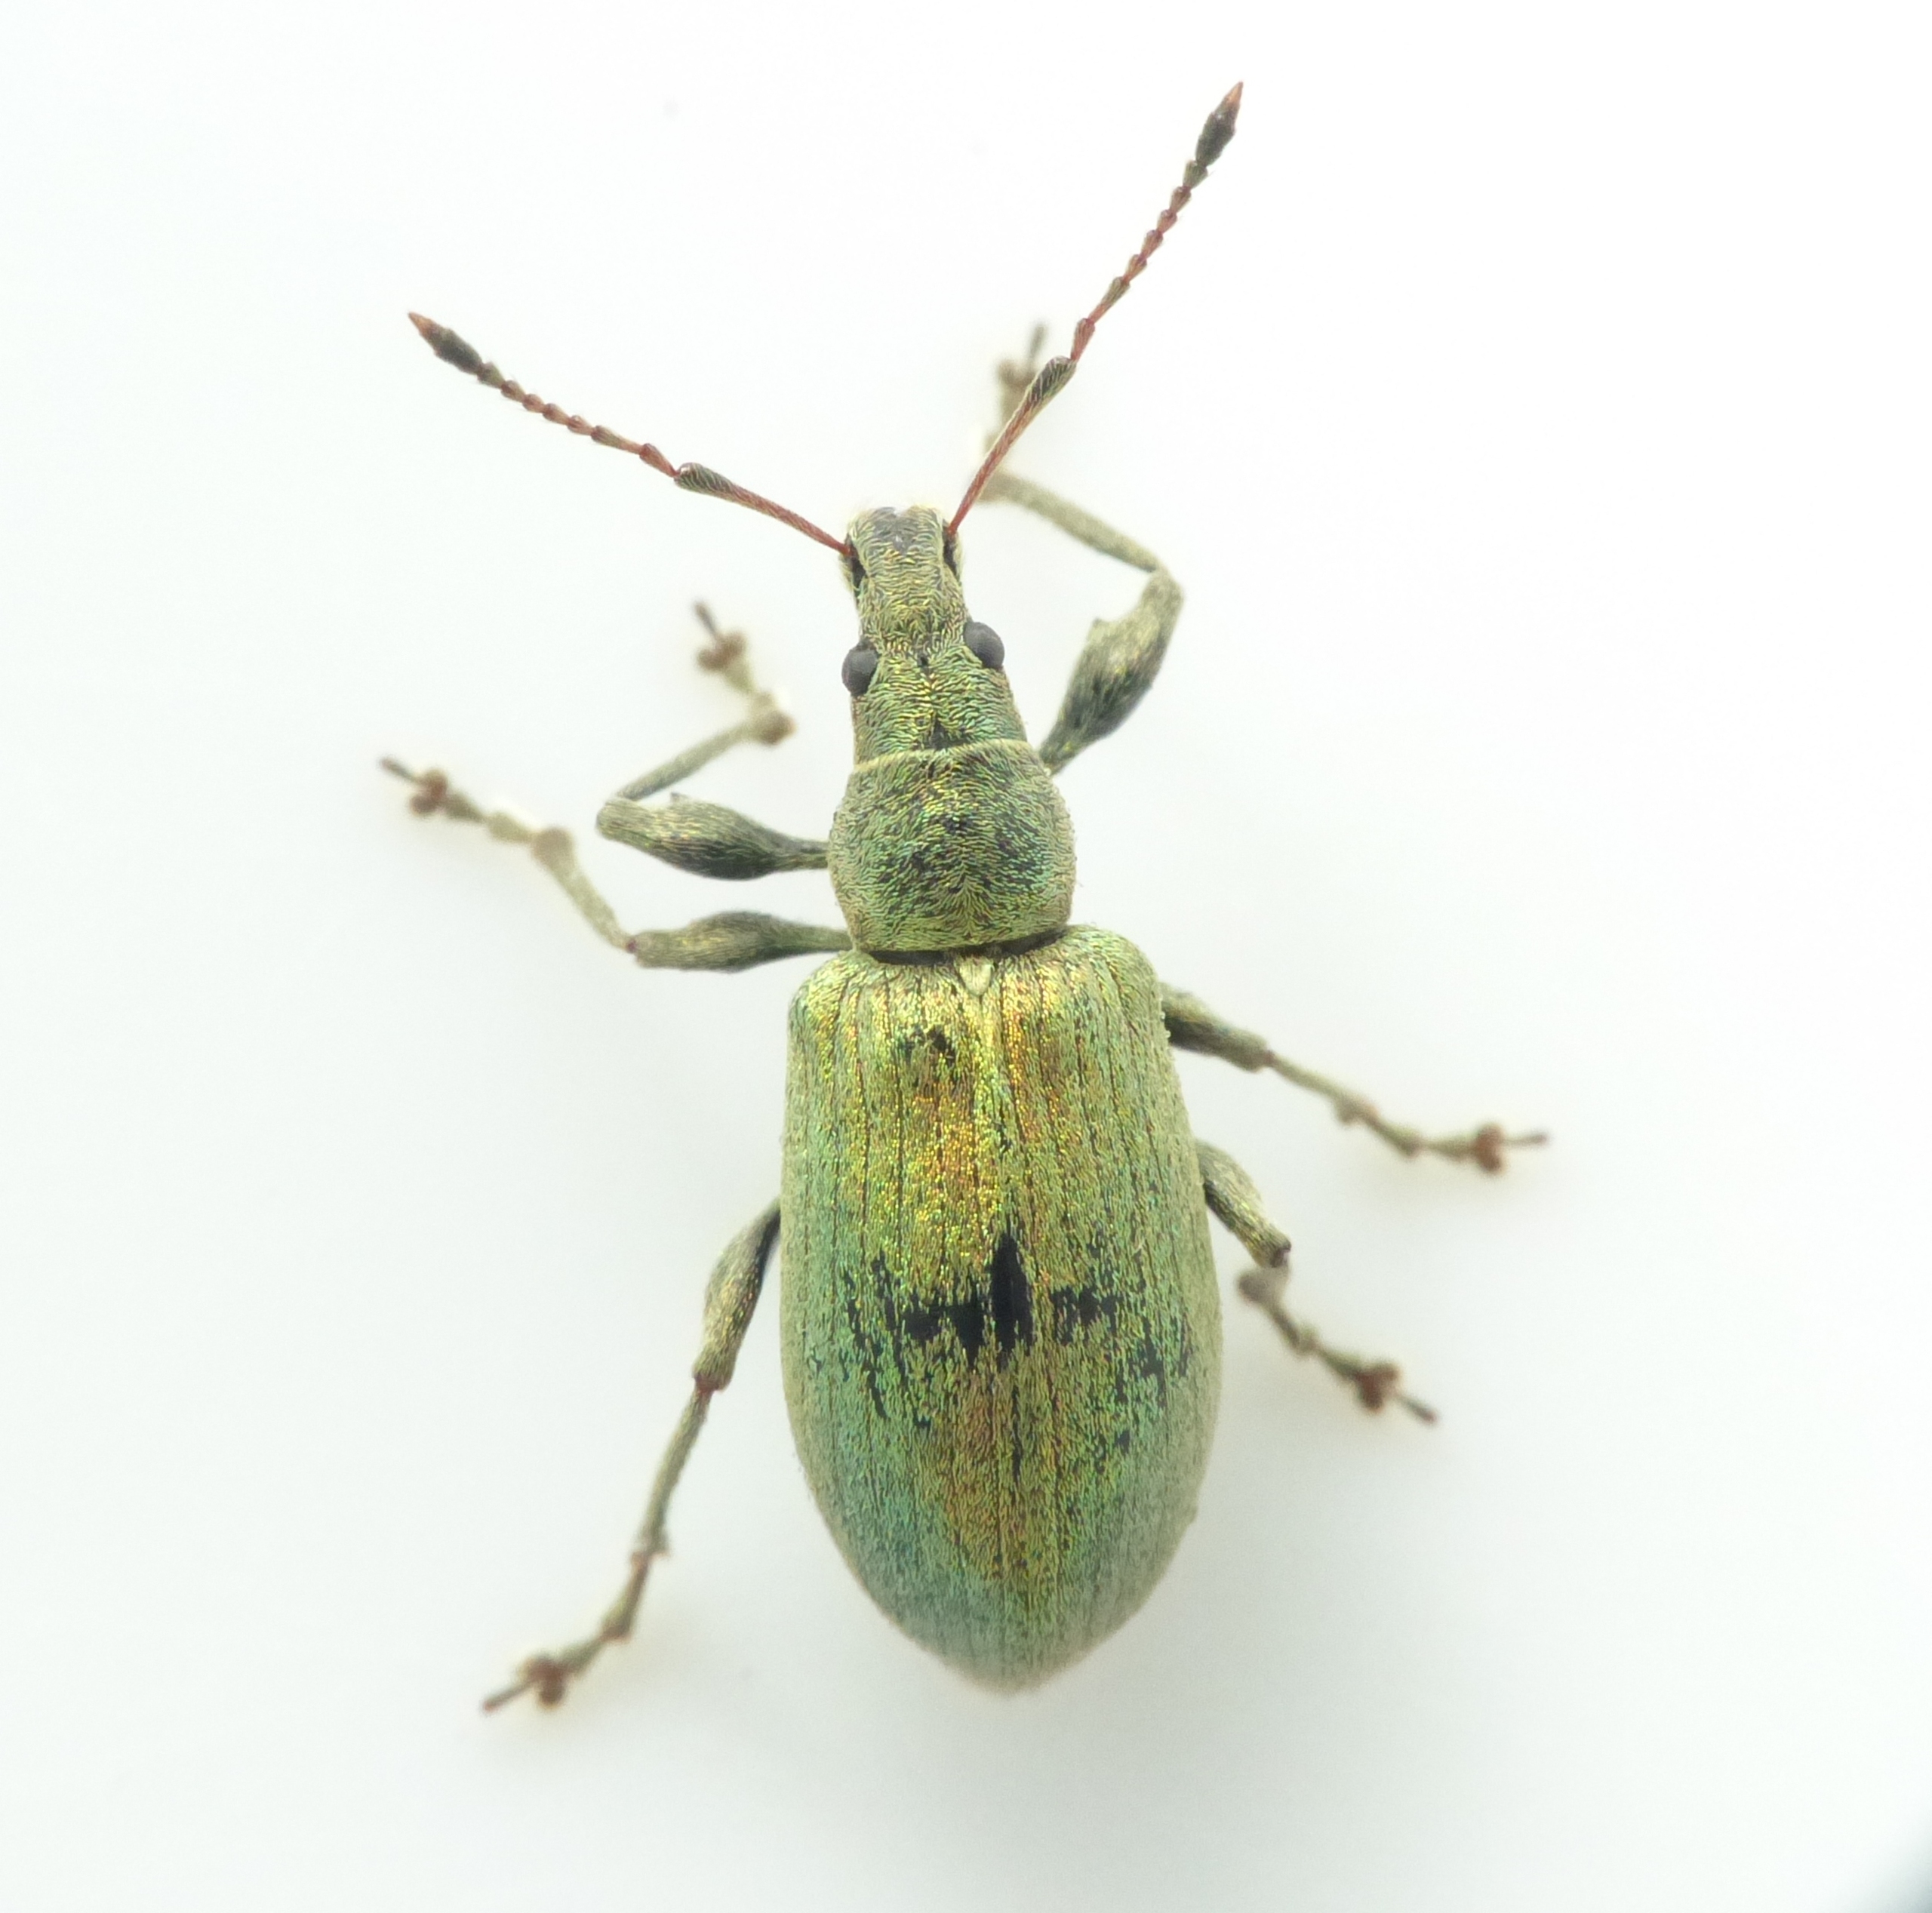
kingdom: Animalia
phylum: Arthropoda
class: Insecta
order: Coleoptera
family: Curculionidae
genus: Phyllobius
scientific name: Phyllobius pomaceus
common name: Nældesnudebille
